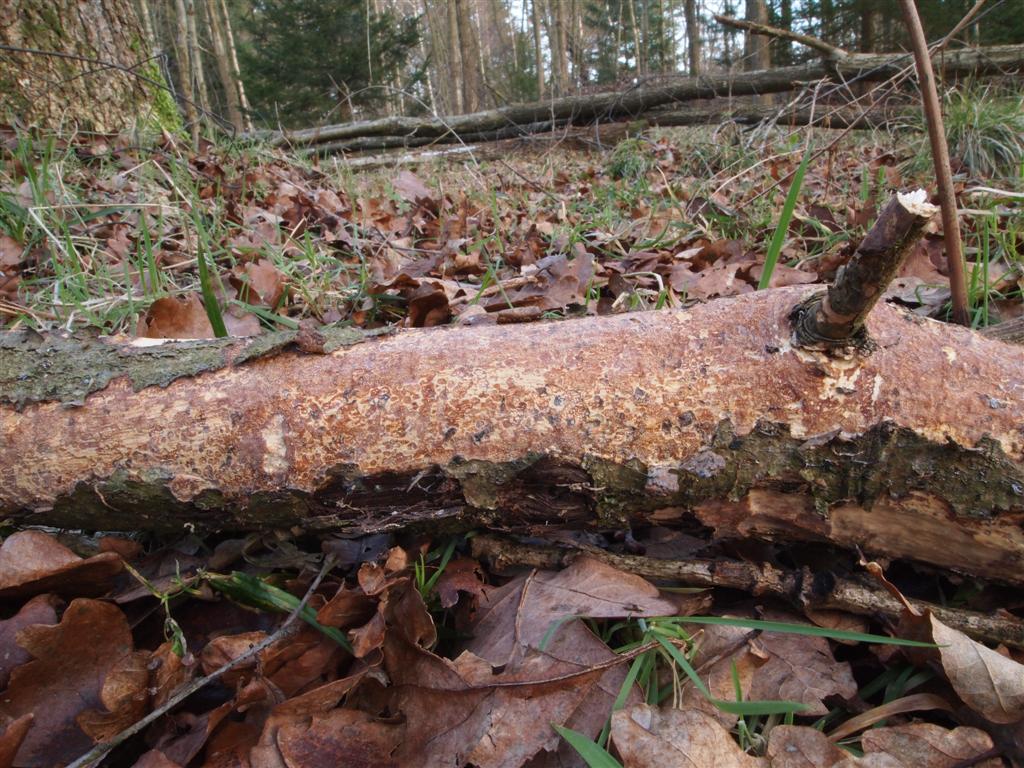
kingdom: Fungi
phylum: Basidiomycota
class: Agaricomycetes
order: Corticiales
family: Vuilleminiaceae
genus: Vuilleminia
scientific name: Vuilleminia comedens
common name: almindelig barksprænger
